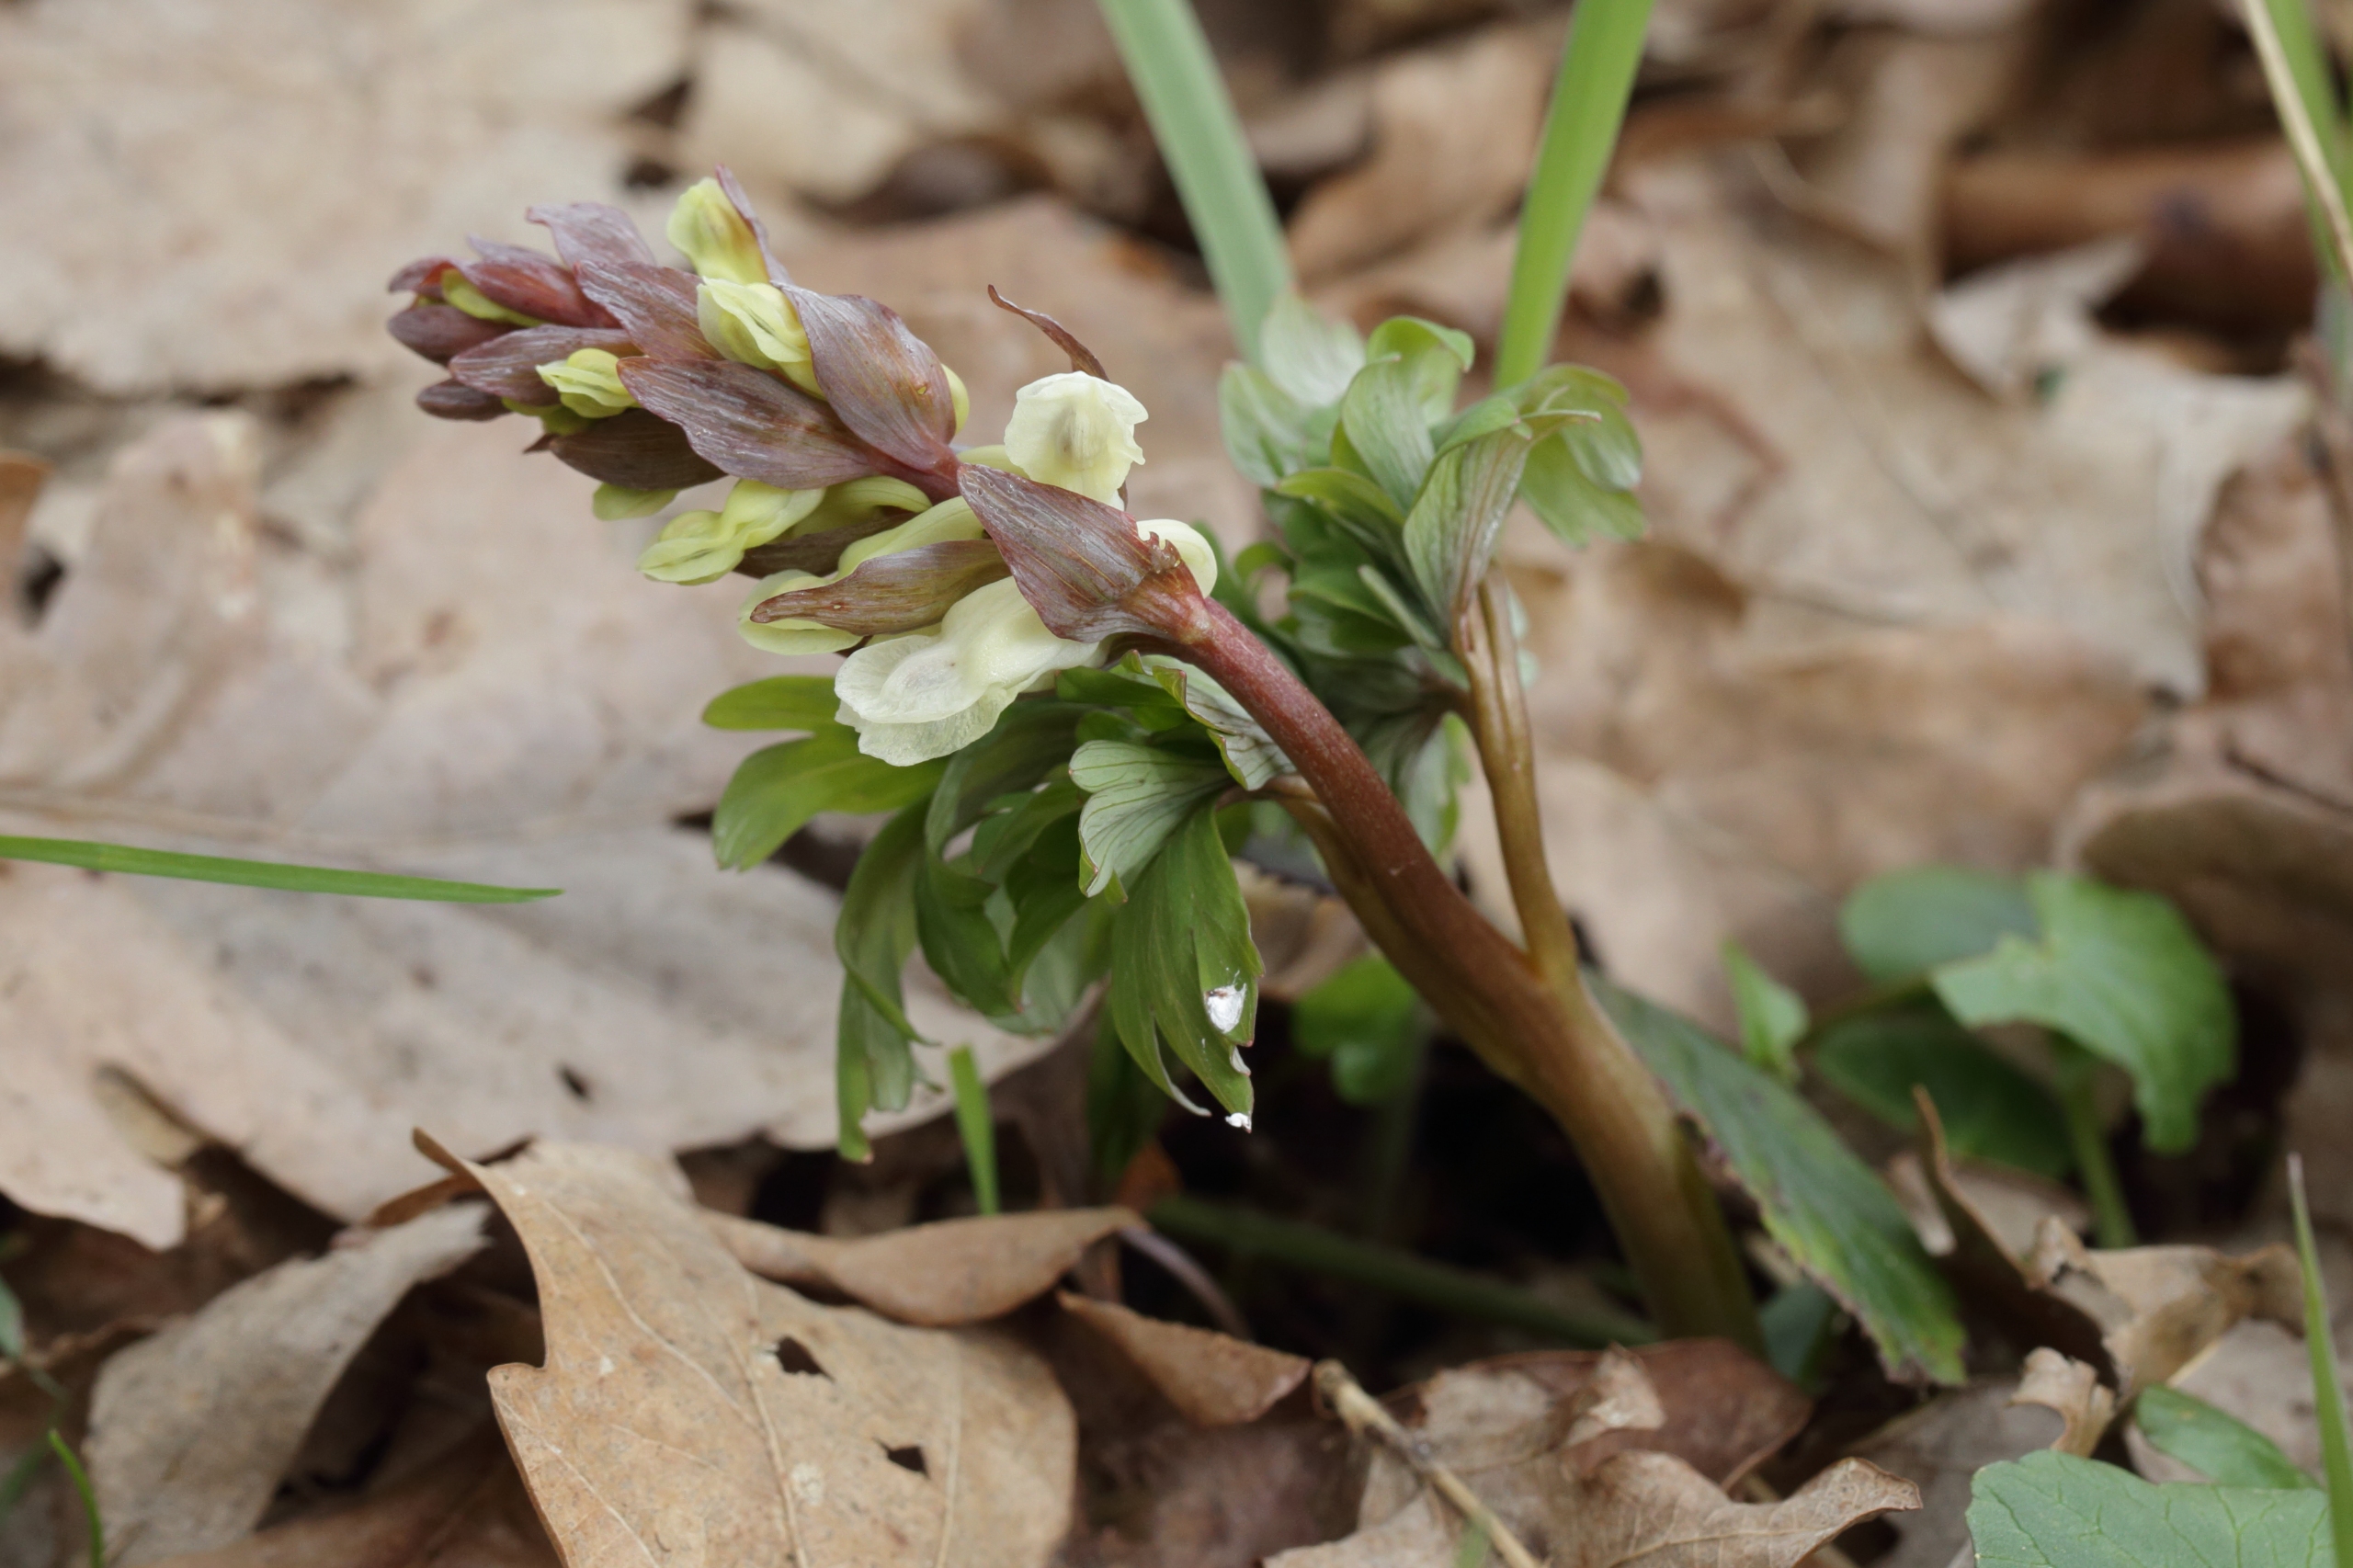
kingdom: Plantae
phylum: Tracheophyta
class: Magnoliopsida
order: Ranunculales
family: Papaveraceae
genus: Corydalis
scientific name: Corydalis cava
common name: Hulrodet lærkespore
